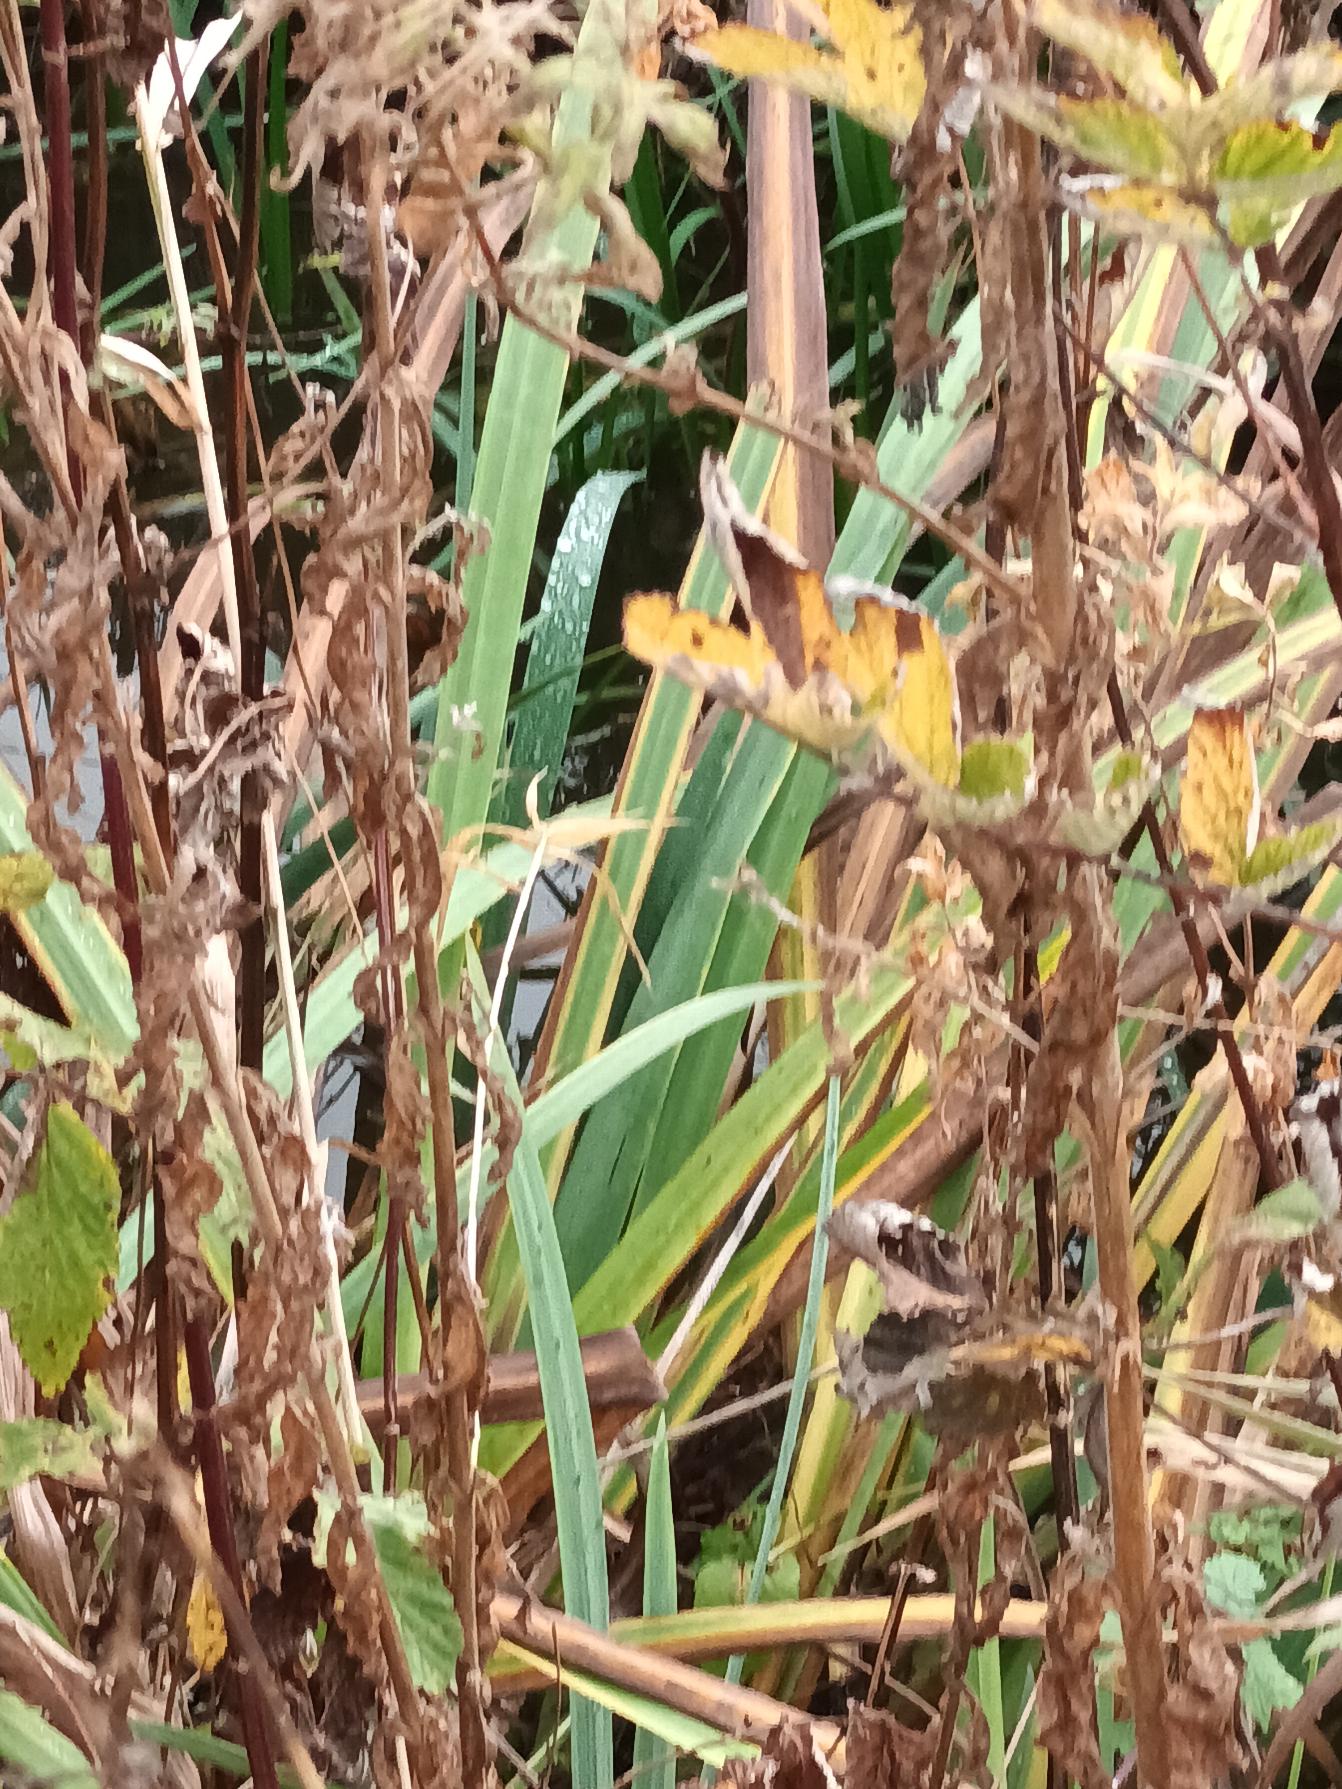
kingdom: Plantae
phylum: Tracheophyta
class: Liliopsida
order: Asparagales
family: Iridaceae
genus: Iris
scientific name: Iris pseudacorus
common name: Gul iris
